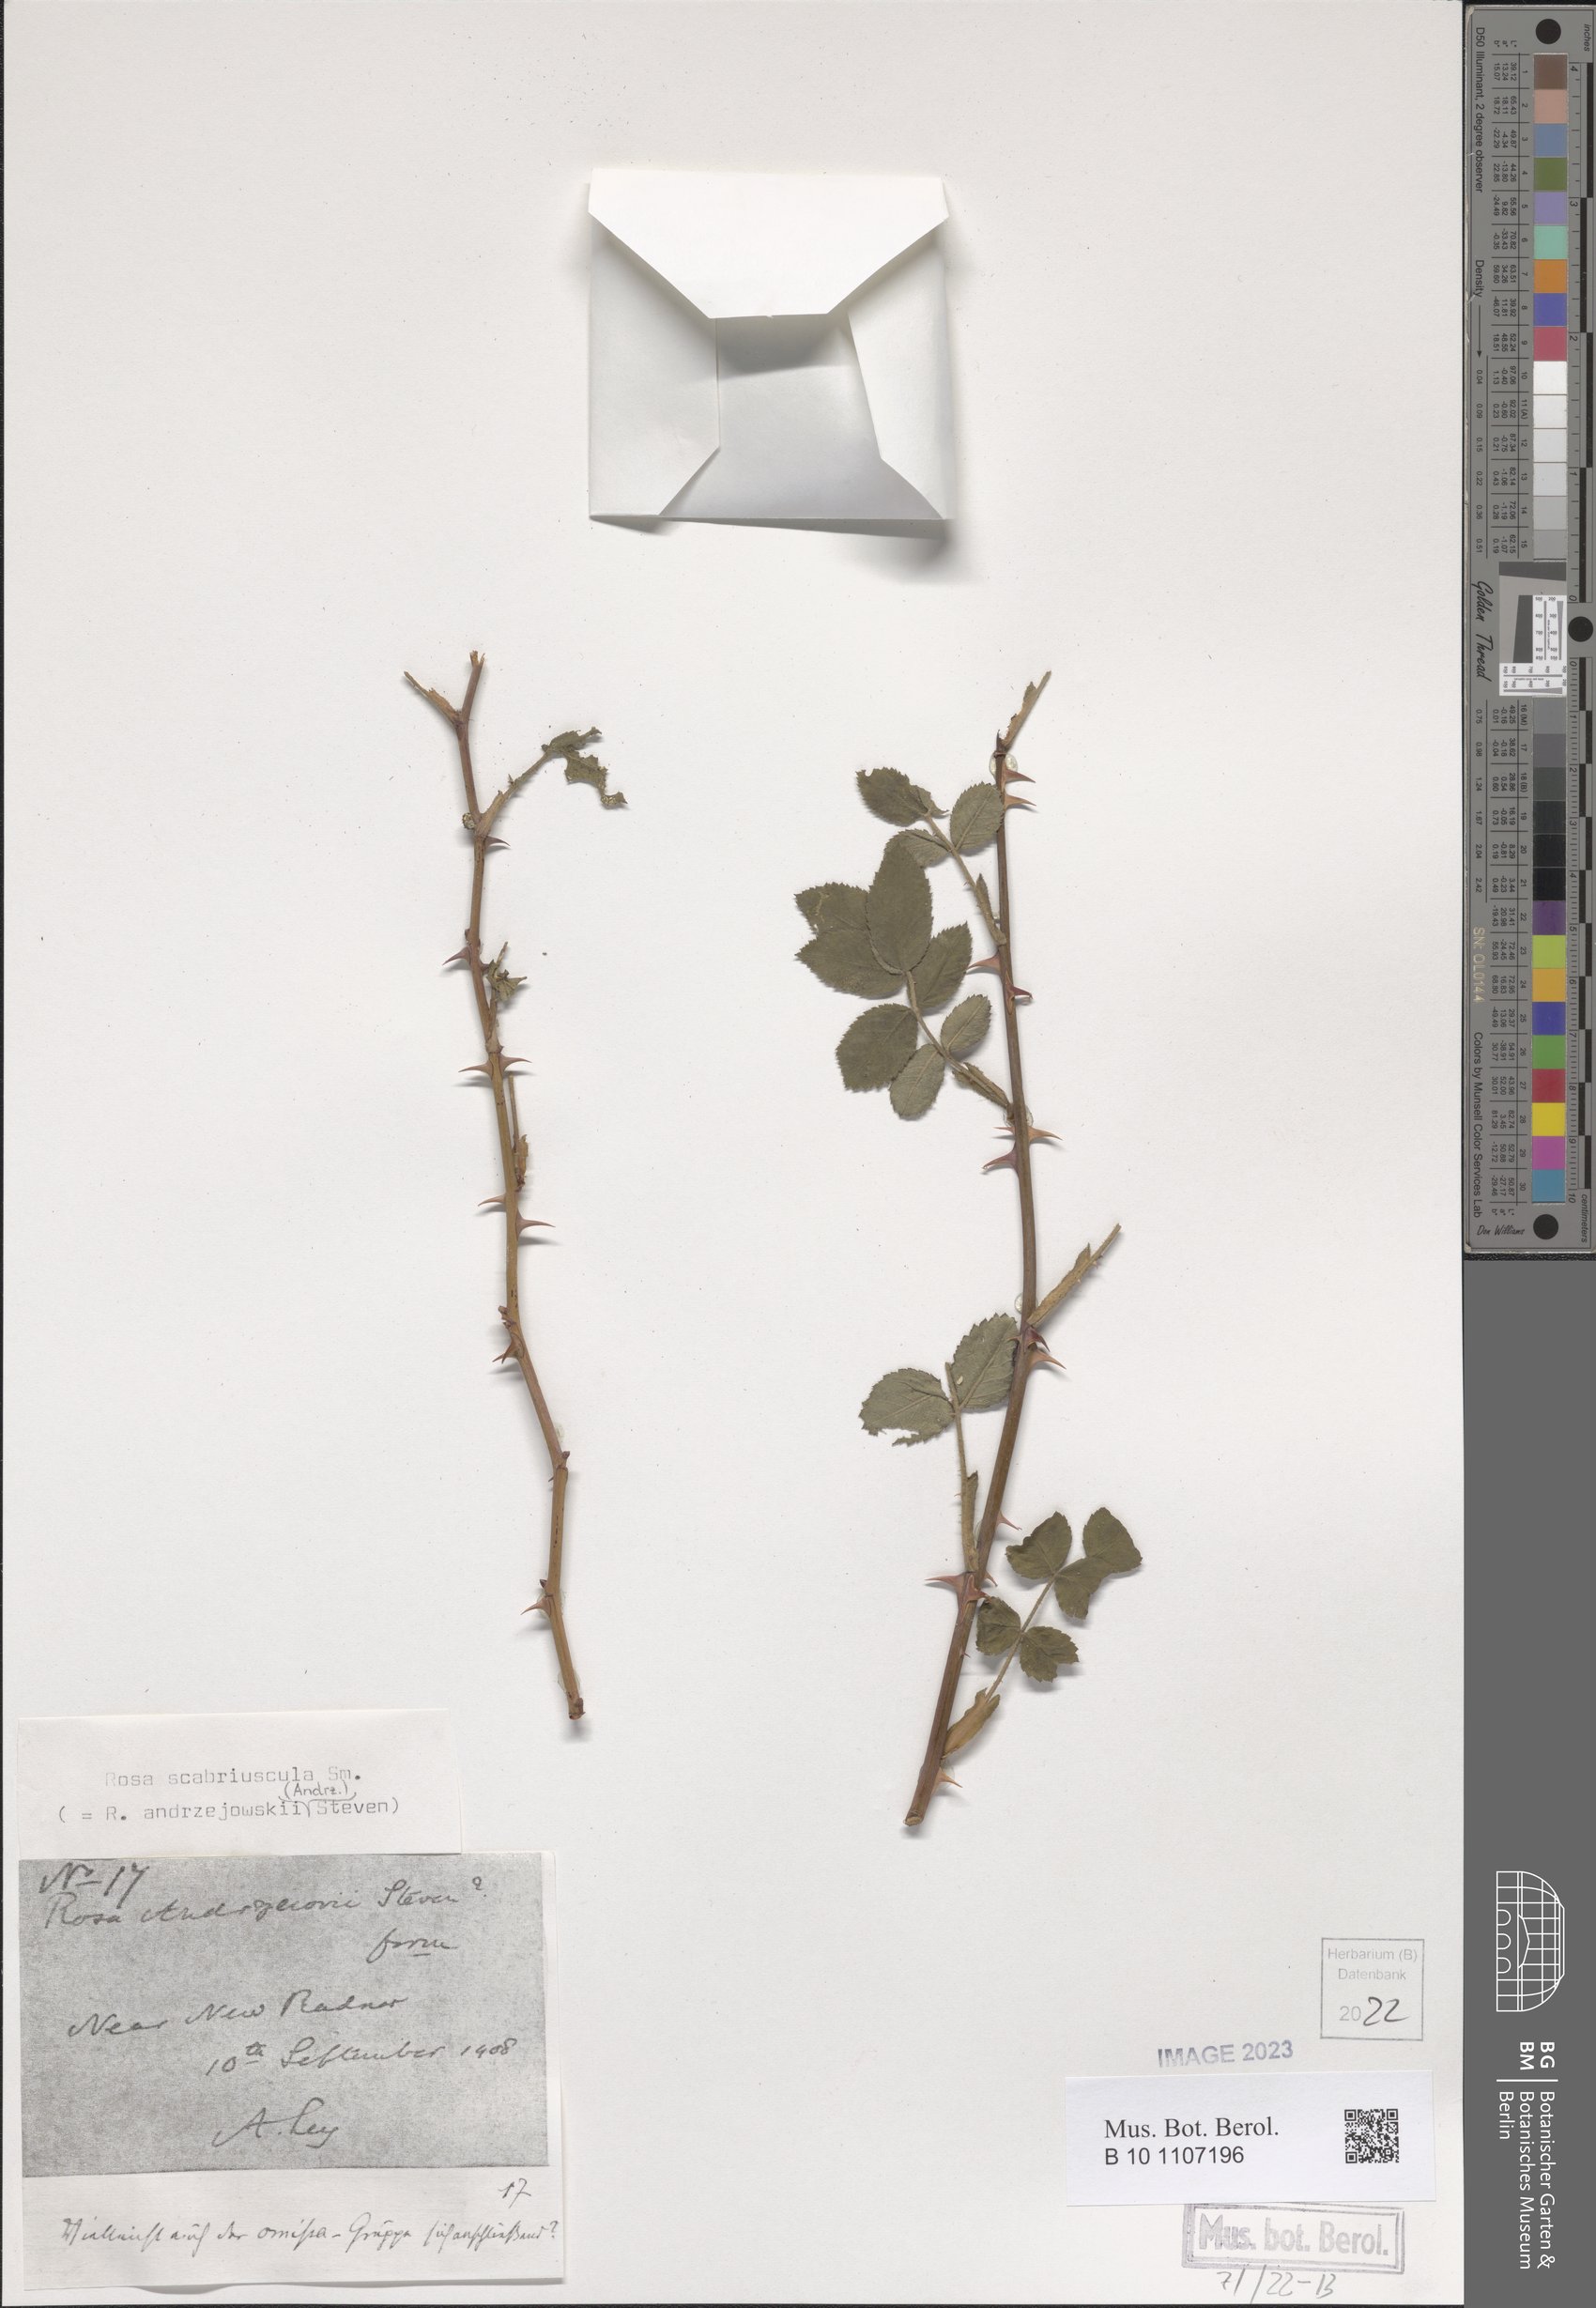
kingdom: Plantae
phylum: Tracheophyta
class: Magnoliopsida
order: Rosales
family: Rosaceae
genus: Rosa
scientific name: Rosa scabriuscula
